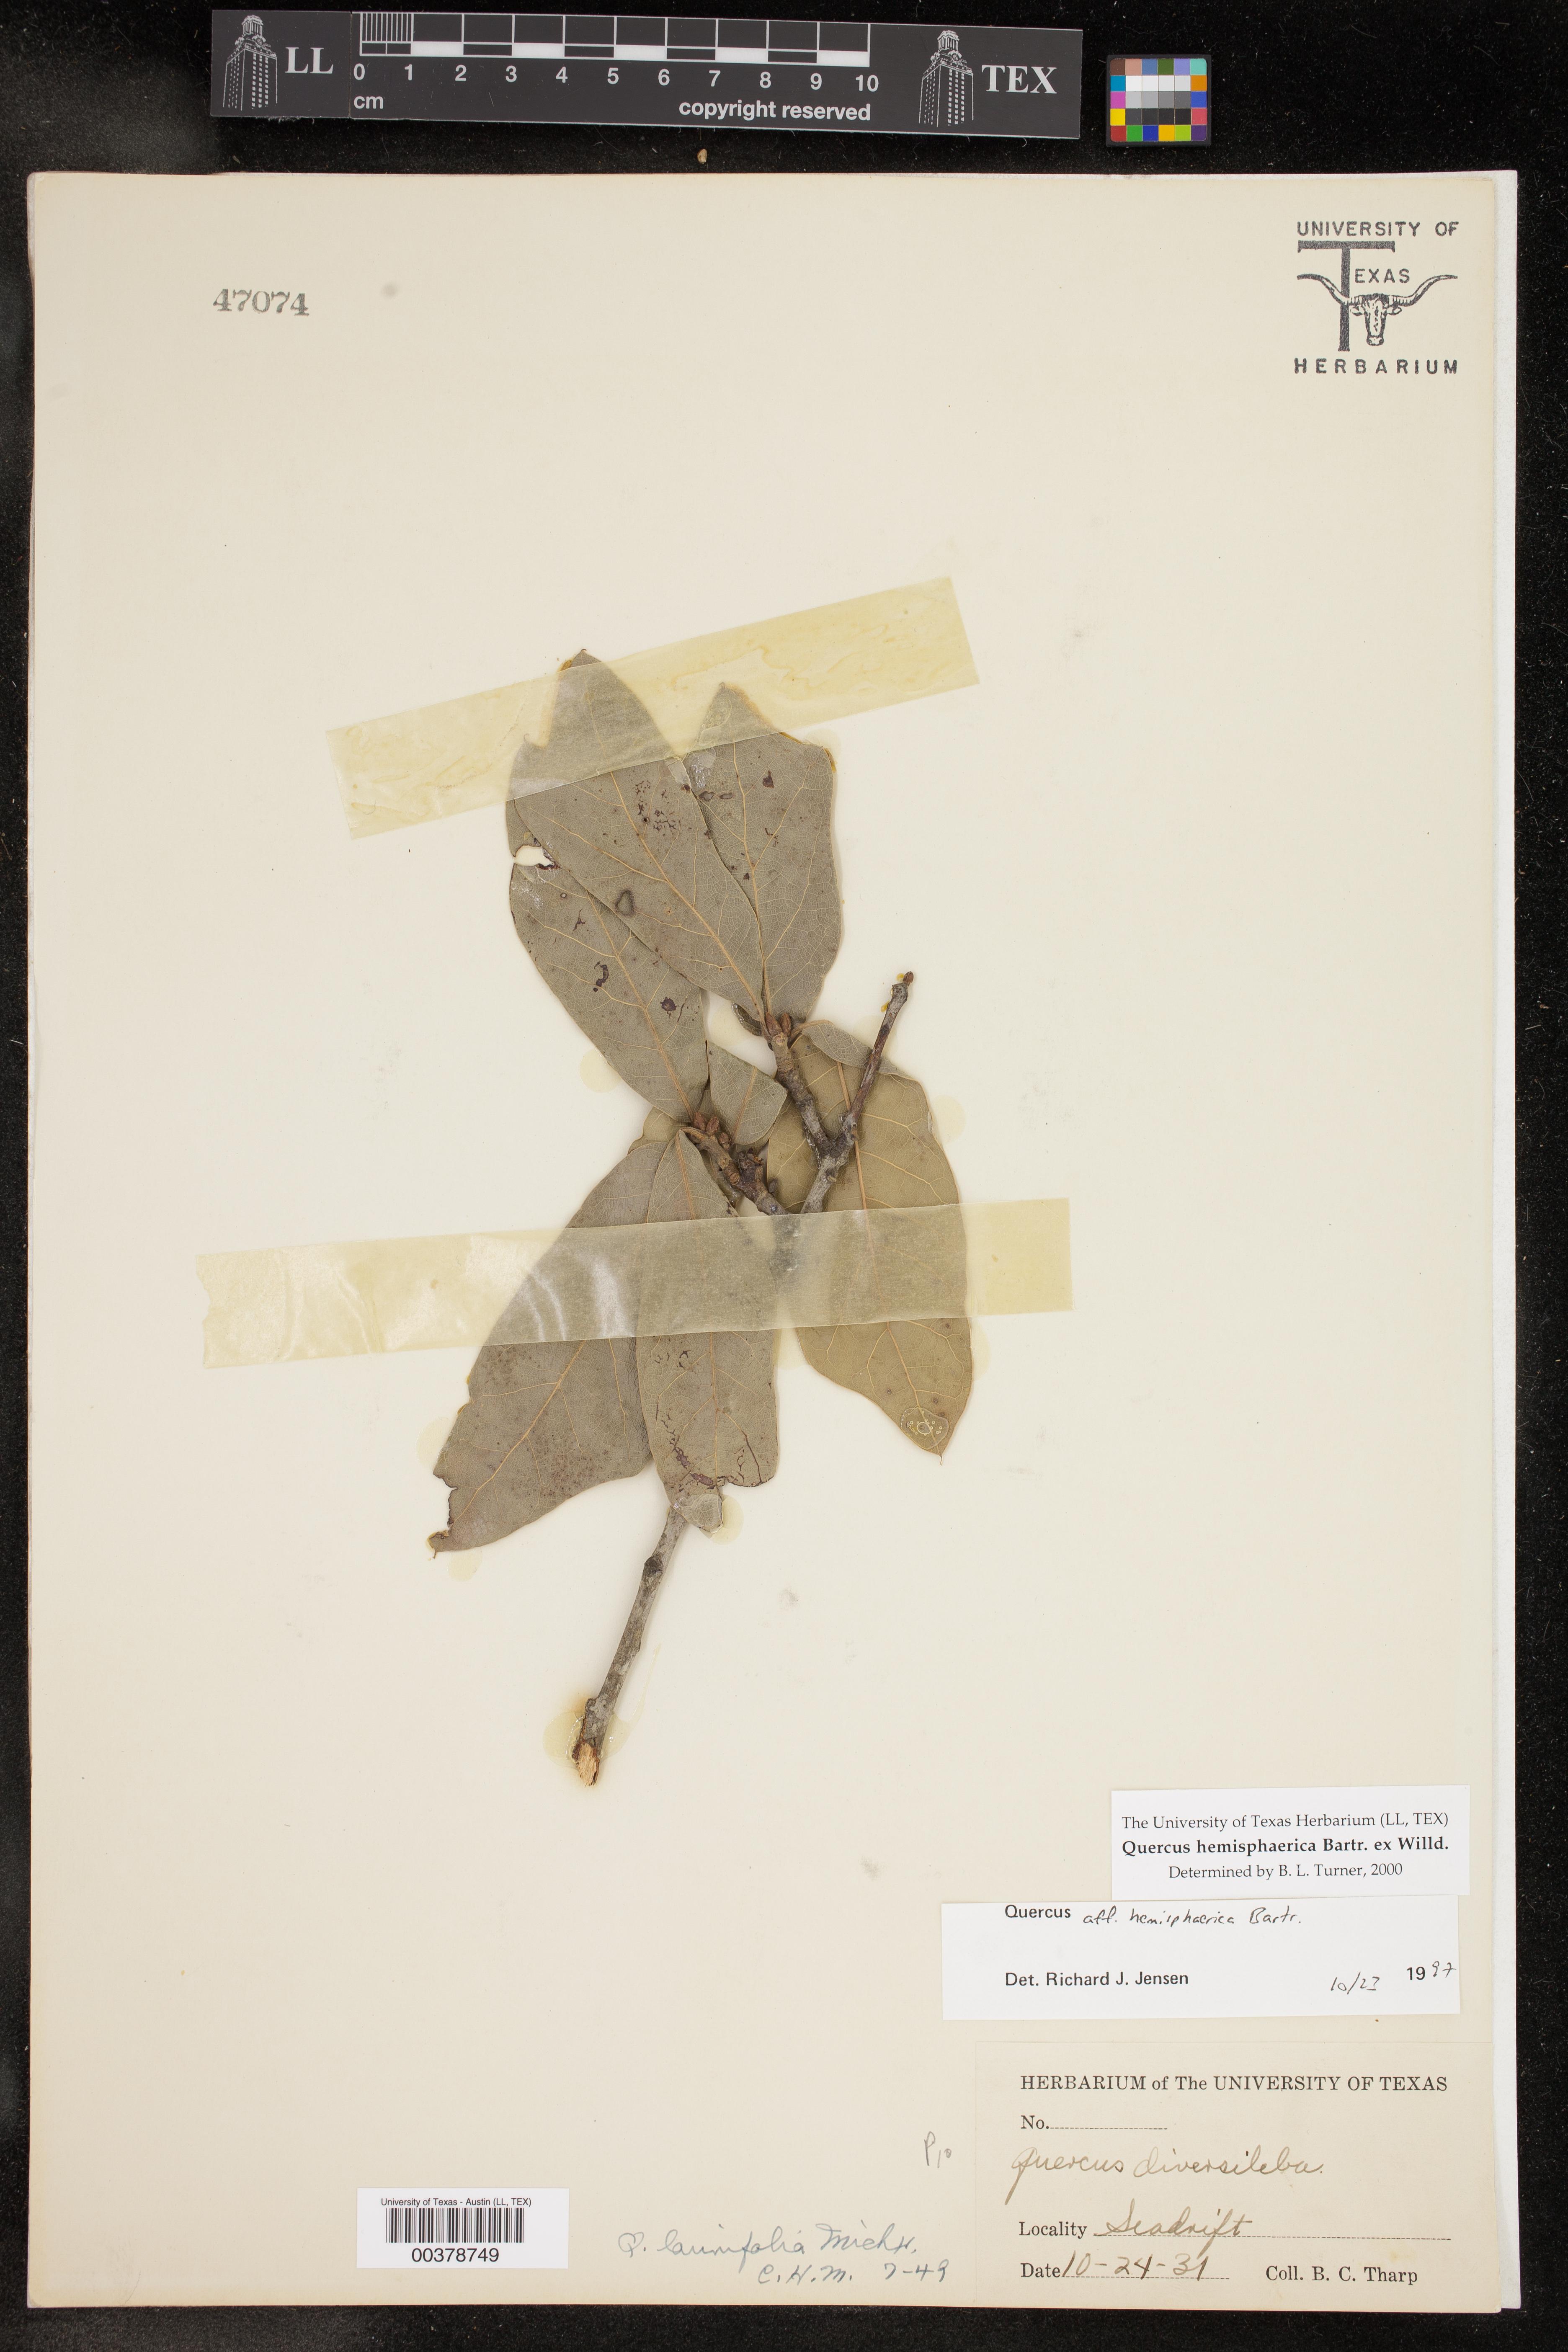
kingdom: Plantae
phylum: Tracheophyta
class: Magnoliopsida
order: Fagales
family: Fagaceae
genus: Quercus
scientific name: Quercus hemisphaerica
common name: Darlington oak
